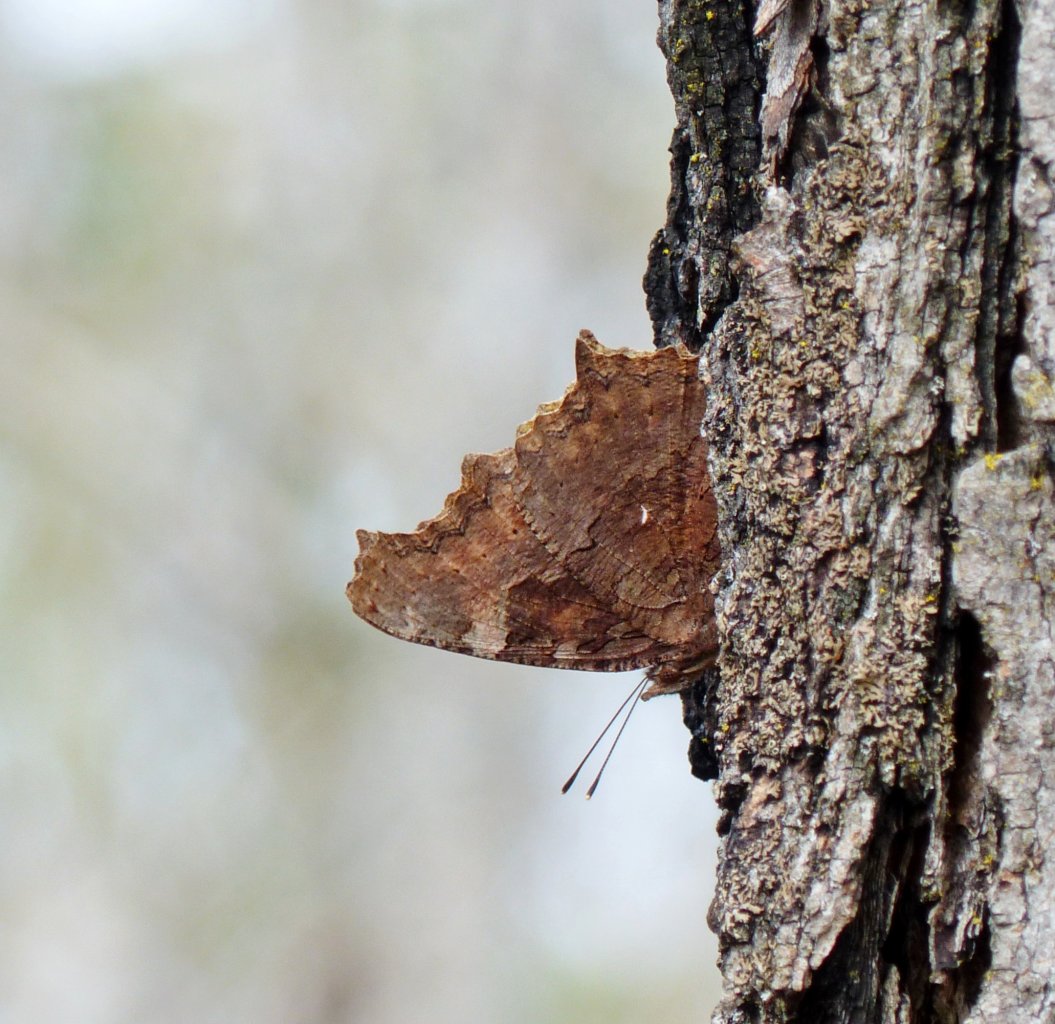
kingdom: Animalia
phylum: Arthropoda
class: Insecta
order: Lepidoptera
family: Nymphalidae
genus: Polygonia
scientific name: Polygonia vaualbum
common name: Compton Tortoiseshell
